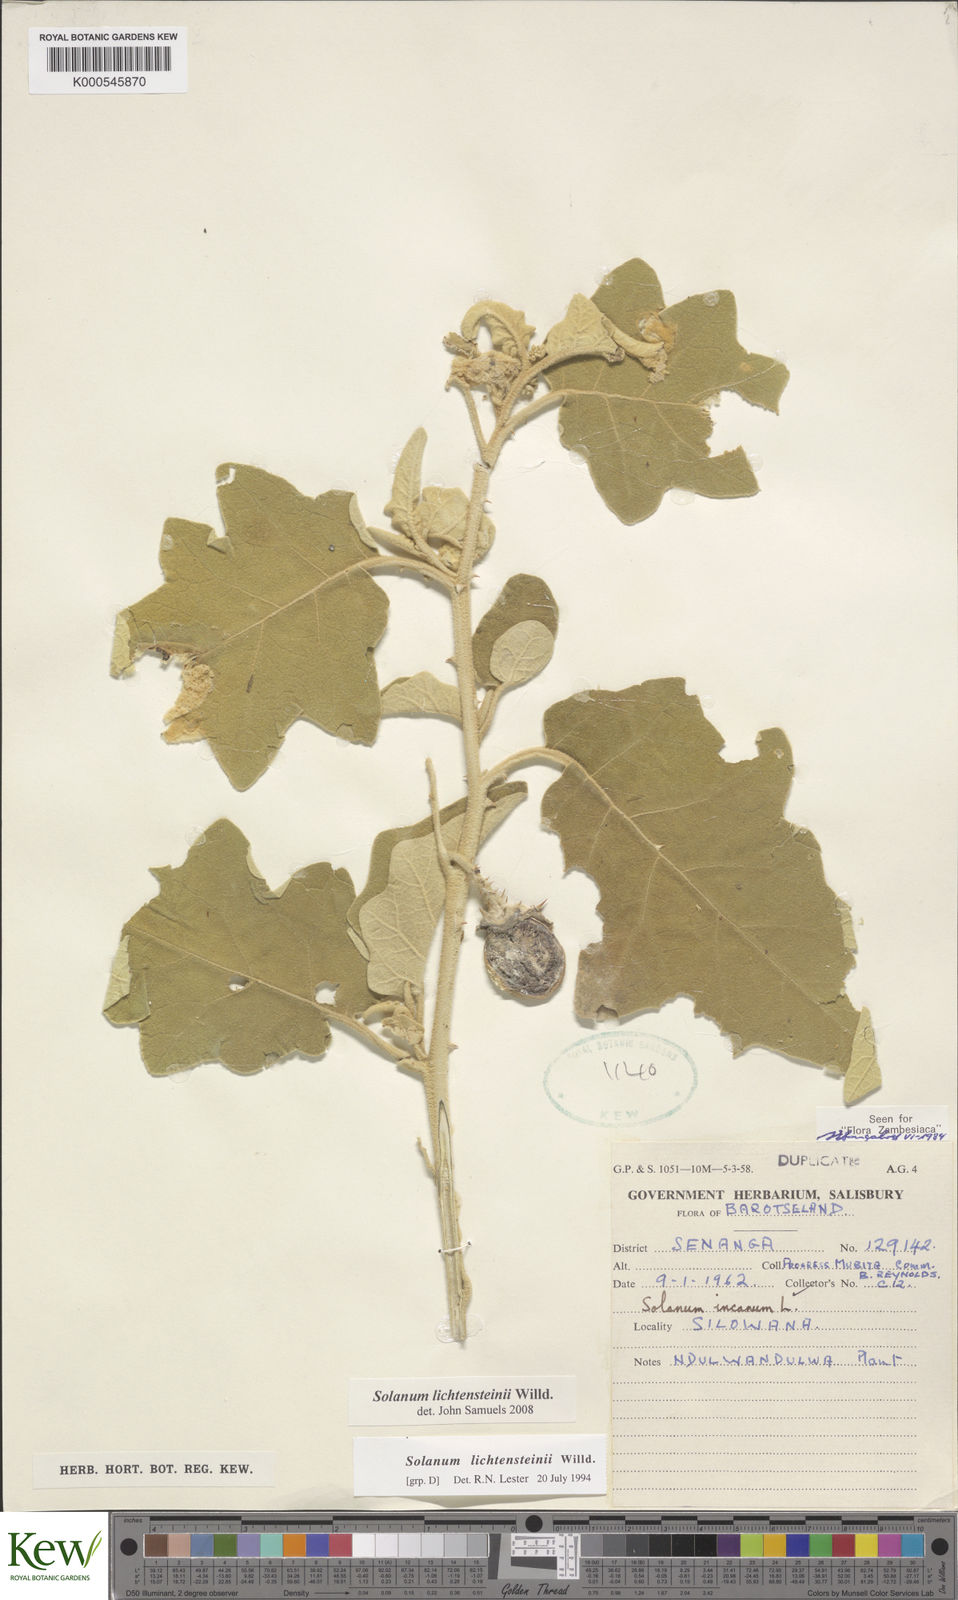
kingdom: Plantae
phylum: Tracheophyta
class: Magnoliopsida
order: Solanales
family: Solanaceae
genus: Solanum
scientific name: Solanum lichtensteinii
